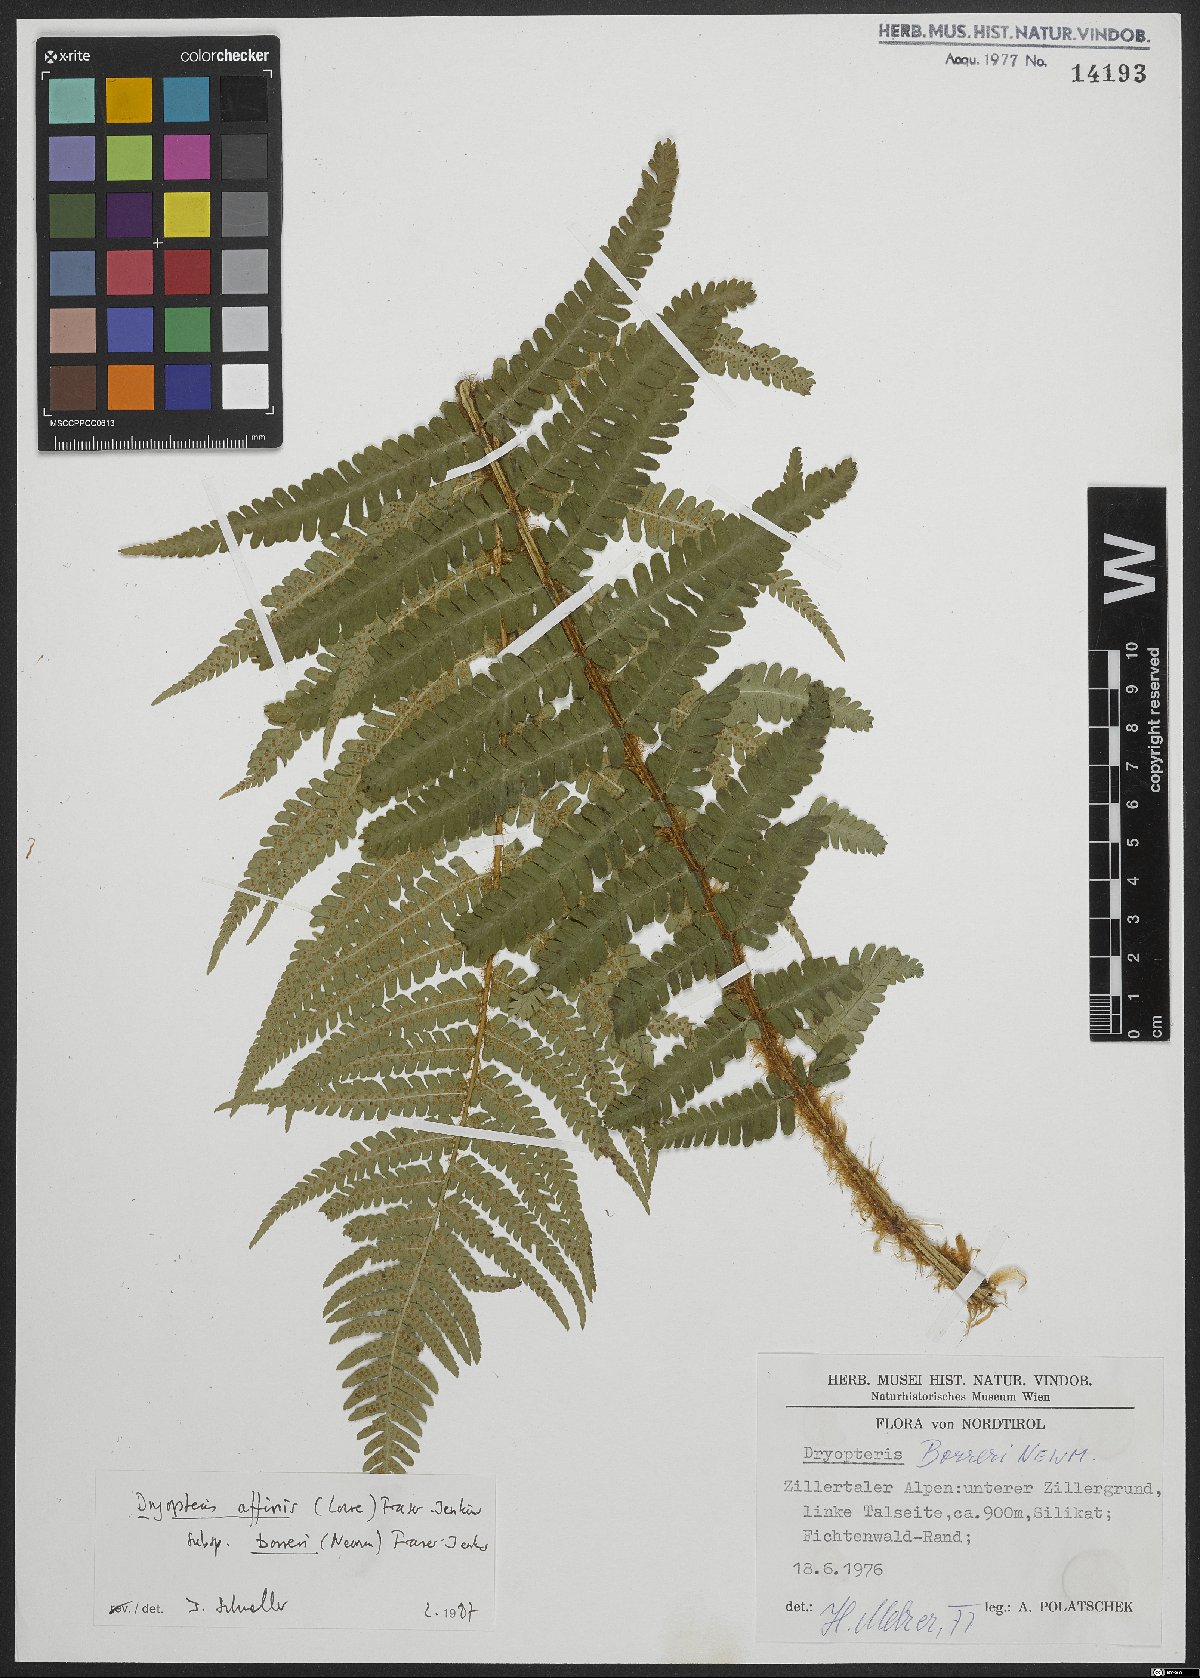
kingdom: Plantae
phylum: Tracheophyta
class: Polypodiopsida
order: Polypodiales
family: Dryopteridaceae
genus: Dryopteris
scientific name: Dryopteris borreri
